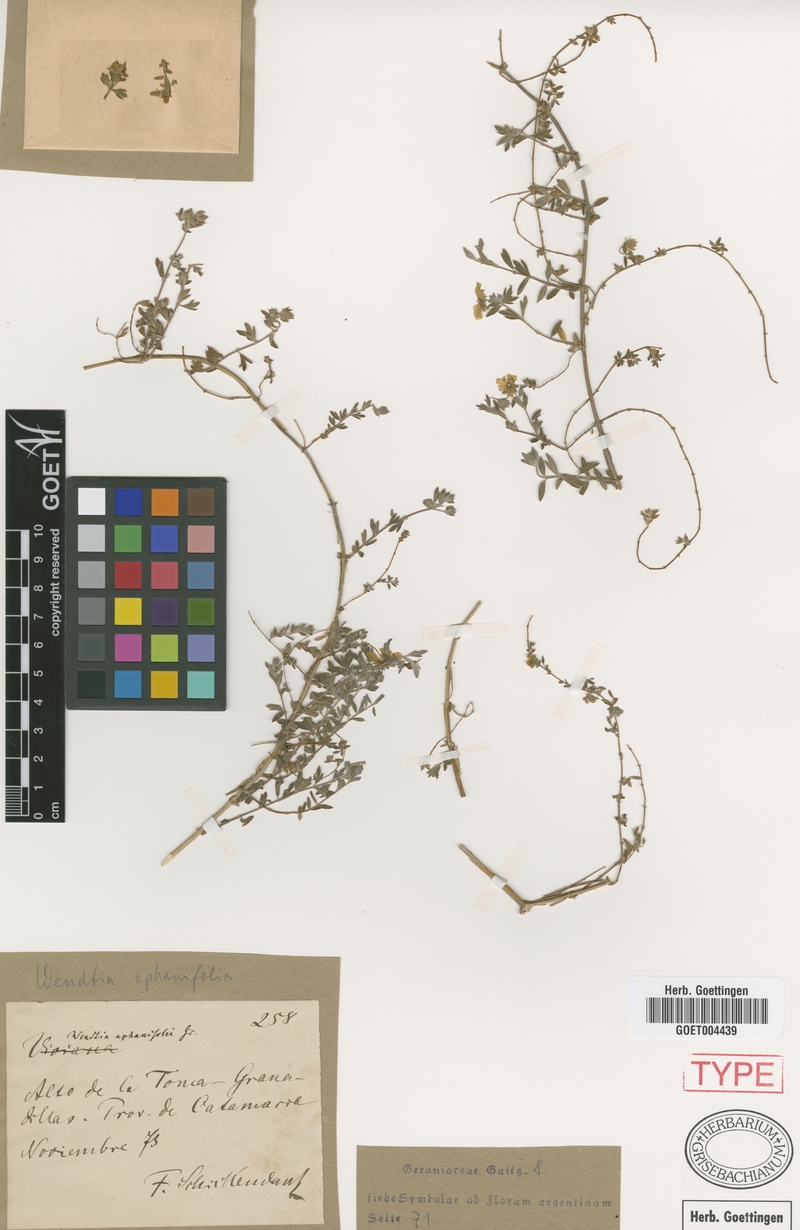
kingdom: Plantae
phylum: Tracheophyta
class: Magnoliopsida
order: Geraniales
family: Vivianiaceae
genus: Wendtia
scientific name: Wendtia aphanifolia
